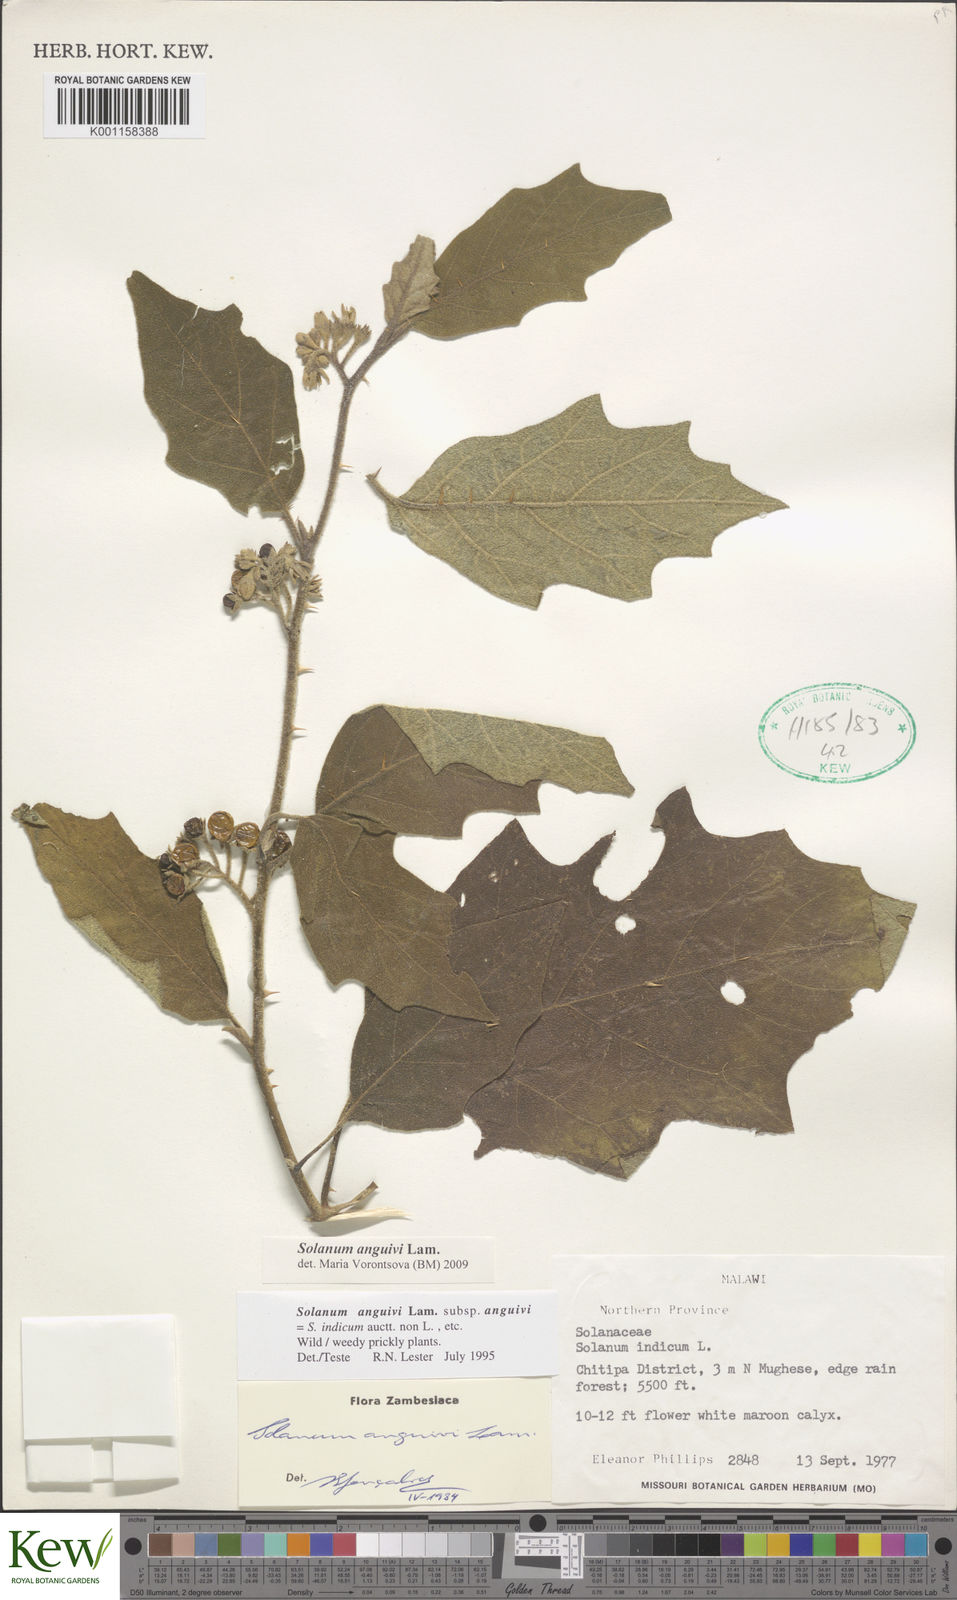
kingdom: Plantae
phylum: Tracheophyta
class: Magnoliopsida
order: Solanales
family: Solanaceae
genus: Solanum
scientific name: Solanum anguivi
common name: Forest bitterberry
